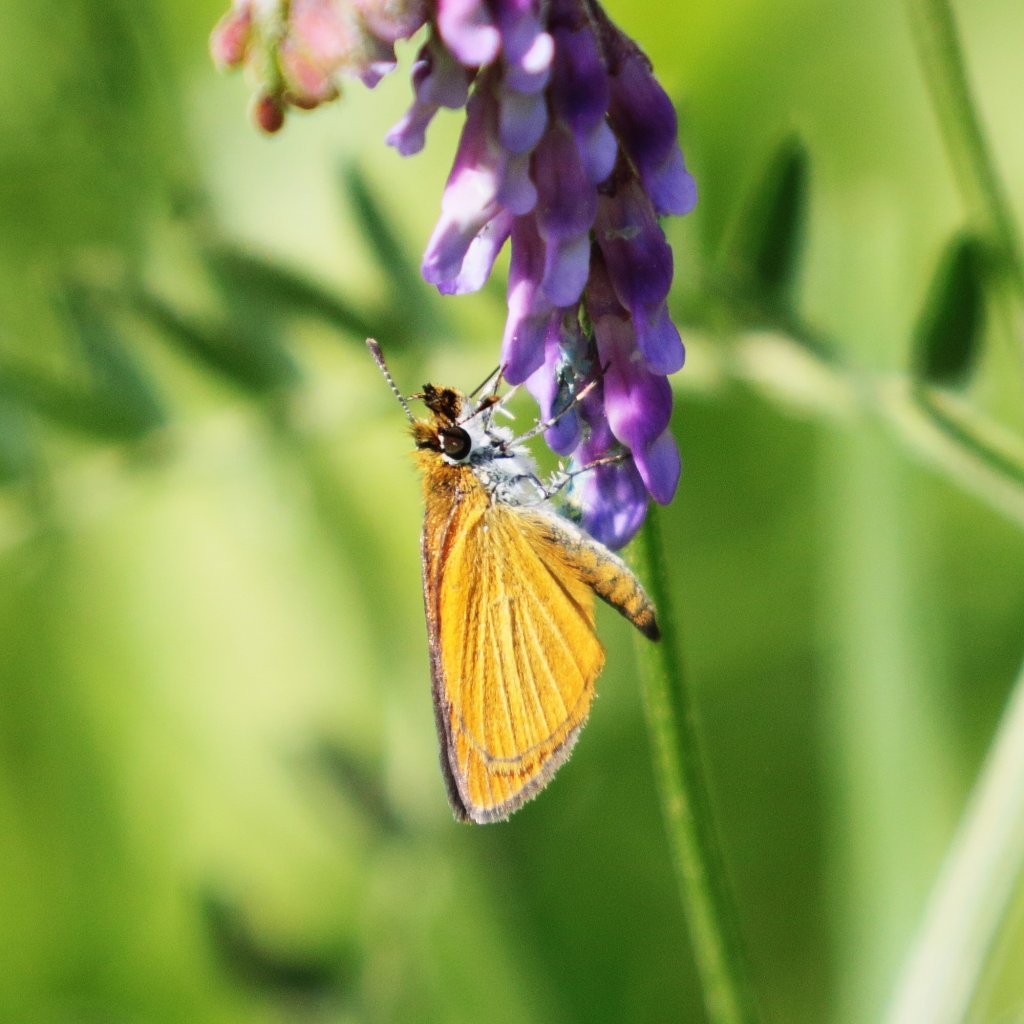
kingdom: Animalia
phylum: Arthropoda
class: Insecta
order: Lepidoptera
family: Hesperiidae
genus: Ancyloxypha
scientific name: Ancyloxypha numitor
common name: Least Skipper
